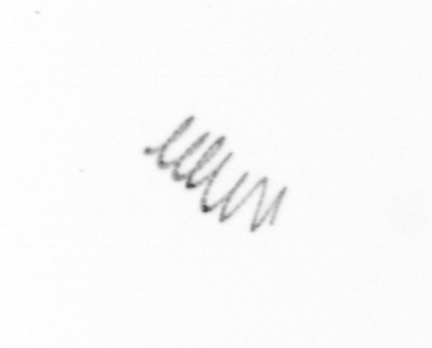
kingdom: Chromista
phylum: Ochrophyta
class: Bacillariophyceae
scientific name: Bacillariophyceae
